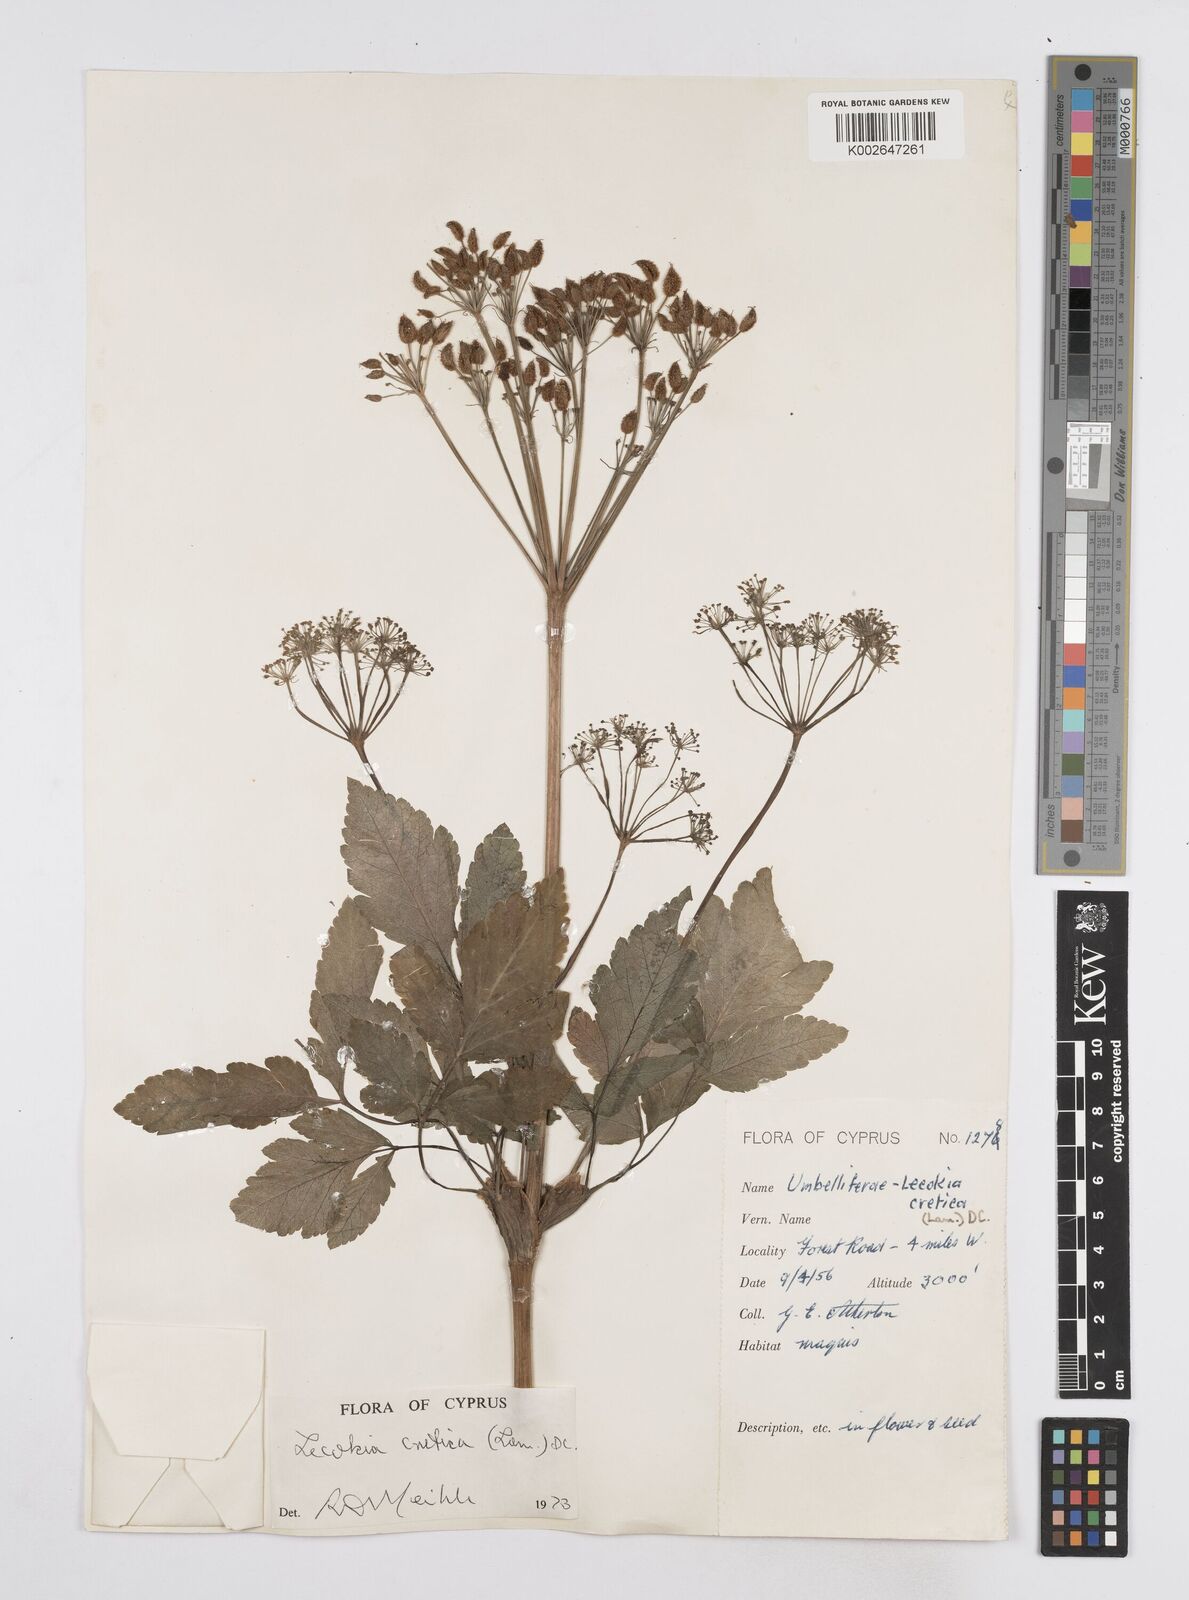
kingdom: Plantae
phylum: Tracheophyta
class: Magnoliopsida
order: Apiales
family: Apiaceae
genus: Lecokia
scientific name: Lecokia cretica
